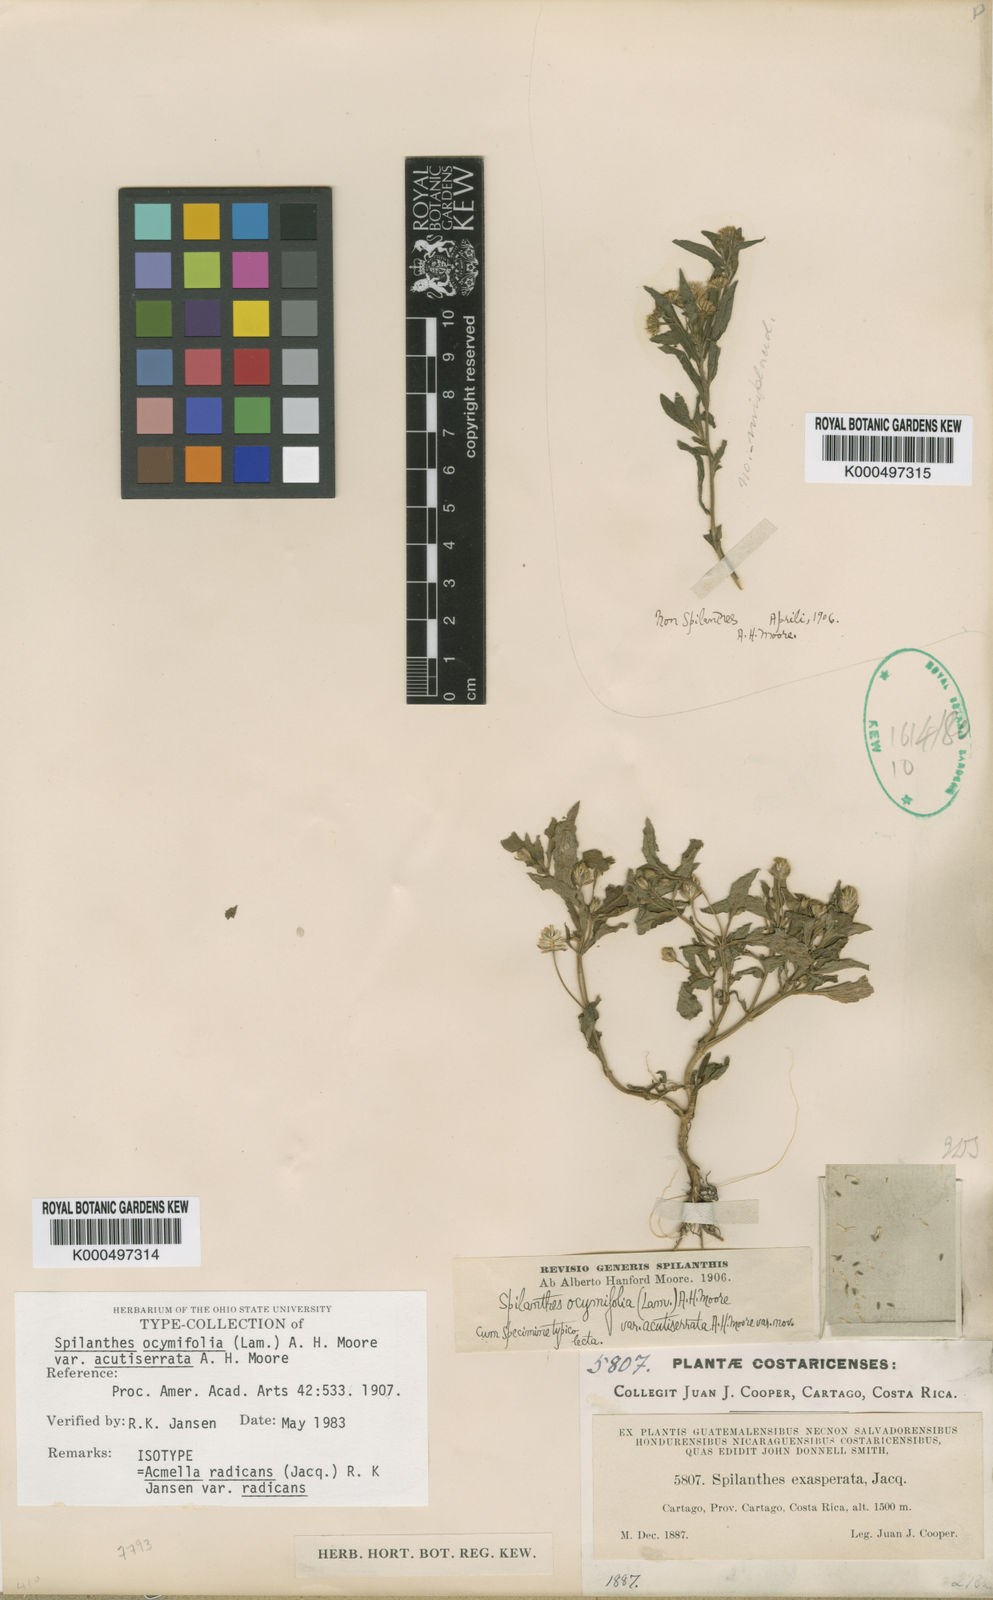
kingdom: Plantae
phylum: Tracheophyta
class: Magnoliopsida
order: Asterales
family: Asteraceae
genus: Acmella
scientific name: Acmella radicans
